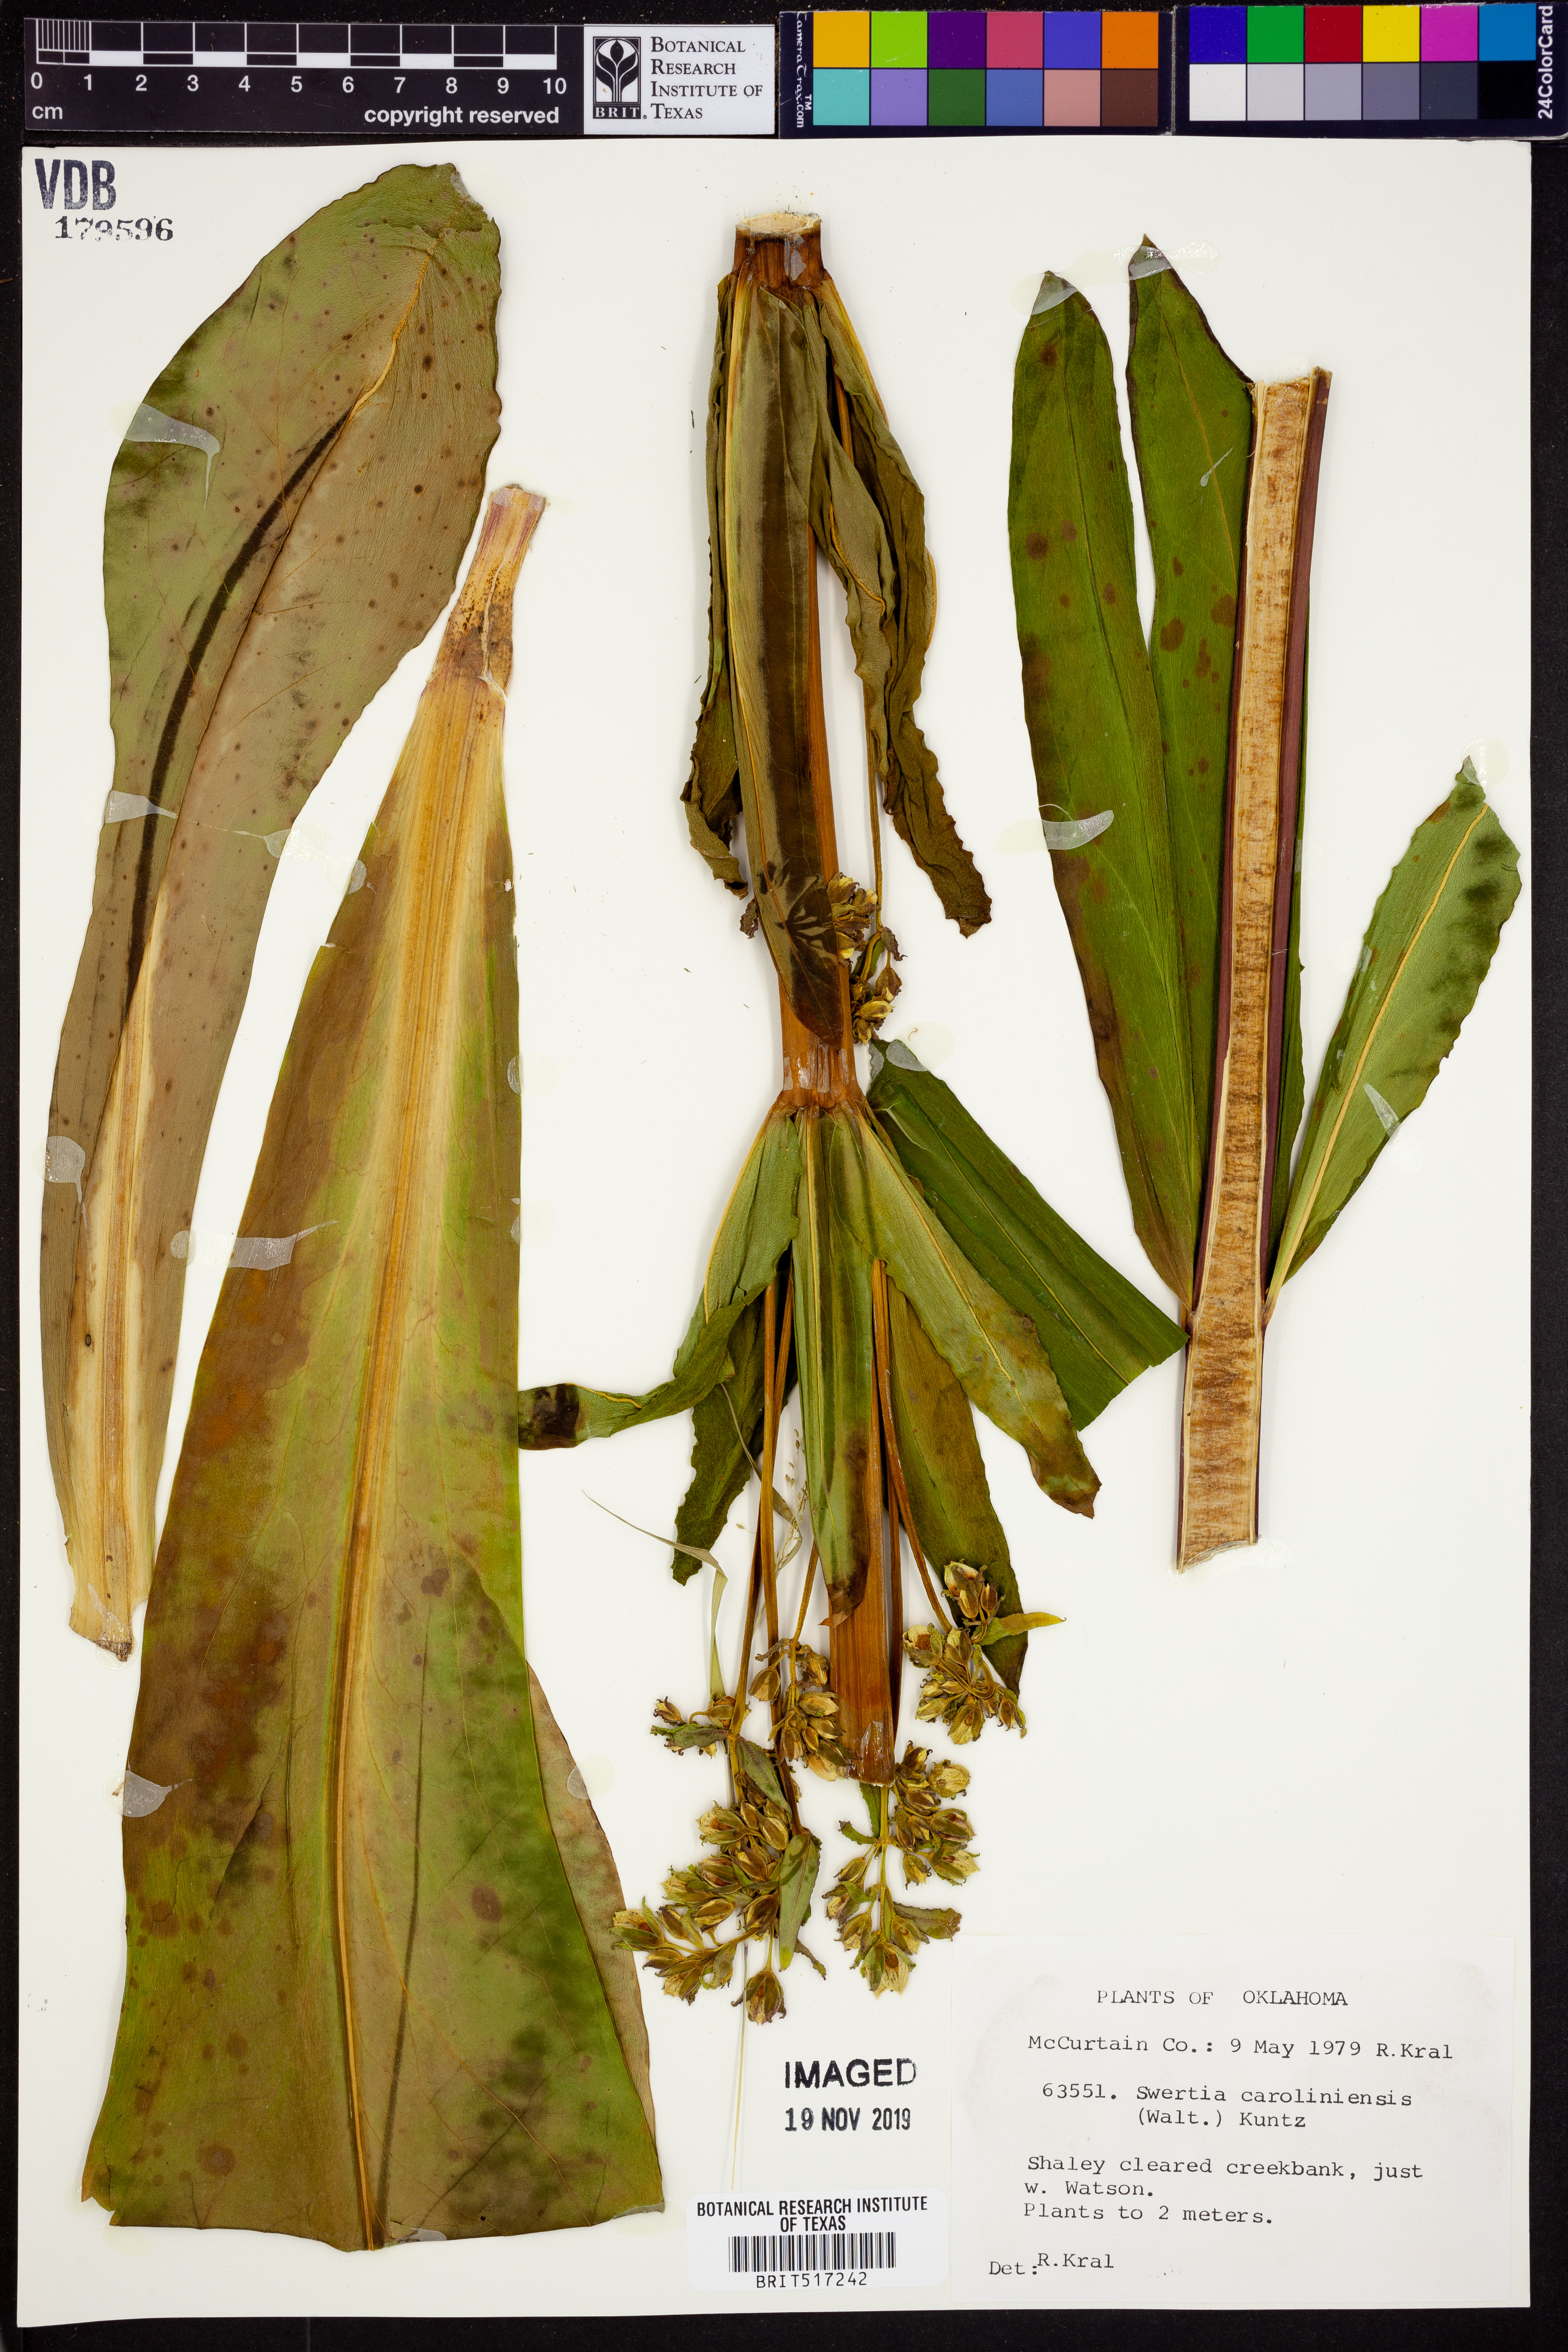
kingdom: Plantae
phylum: Tracheophyta
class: Magnoliopsida
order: Gentianales
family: Gentianaceae
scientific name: Gentianaceae
